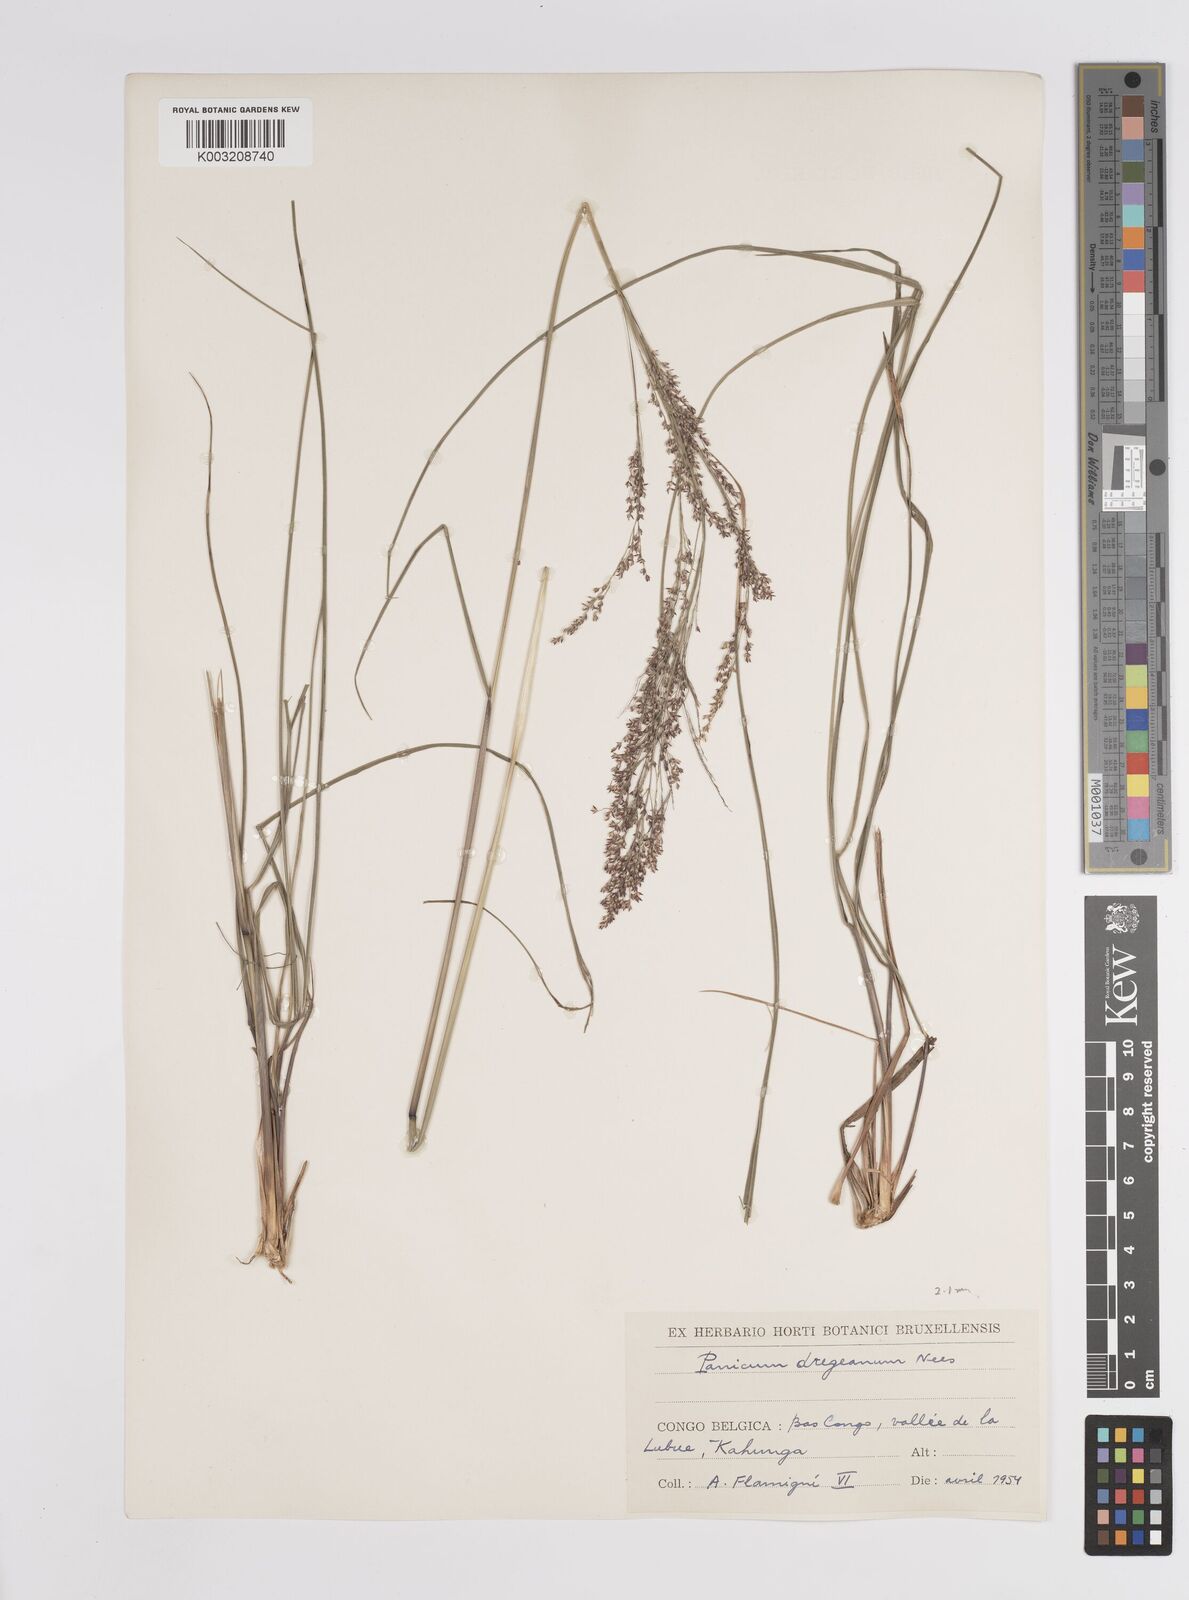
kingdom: Plantae
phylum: Tracheophyta
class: Liliopsida
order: Poales
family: Poaceae
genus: Panicum
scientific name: Panicum dregeanum
